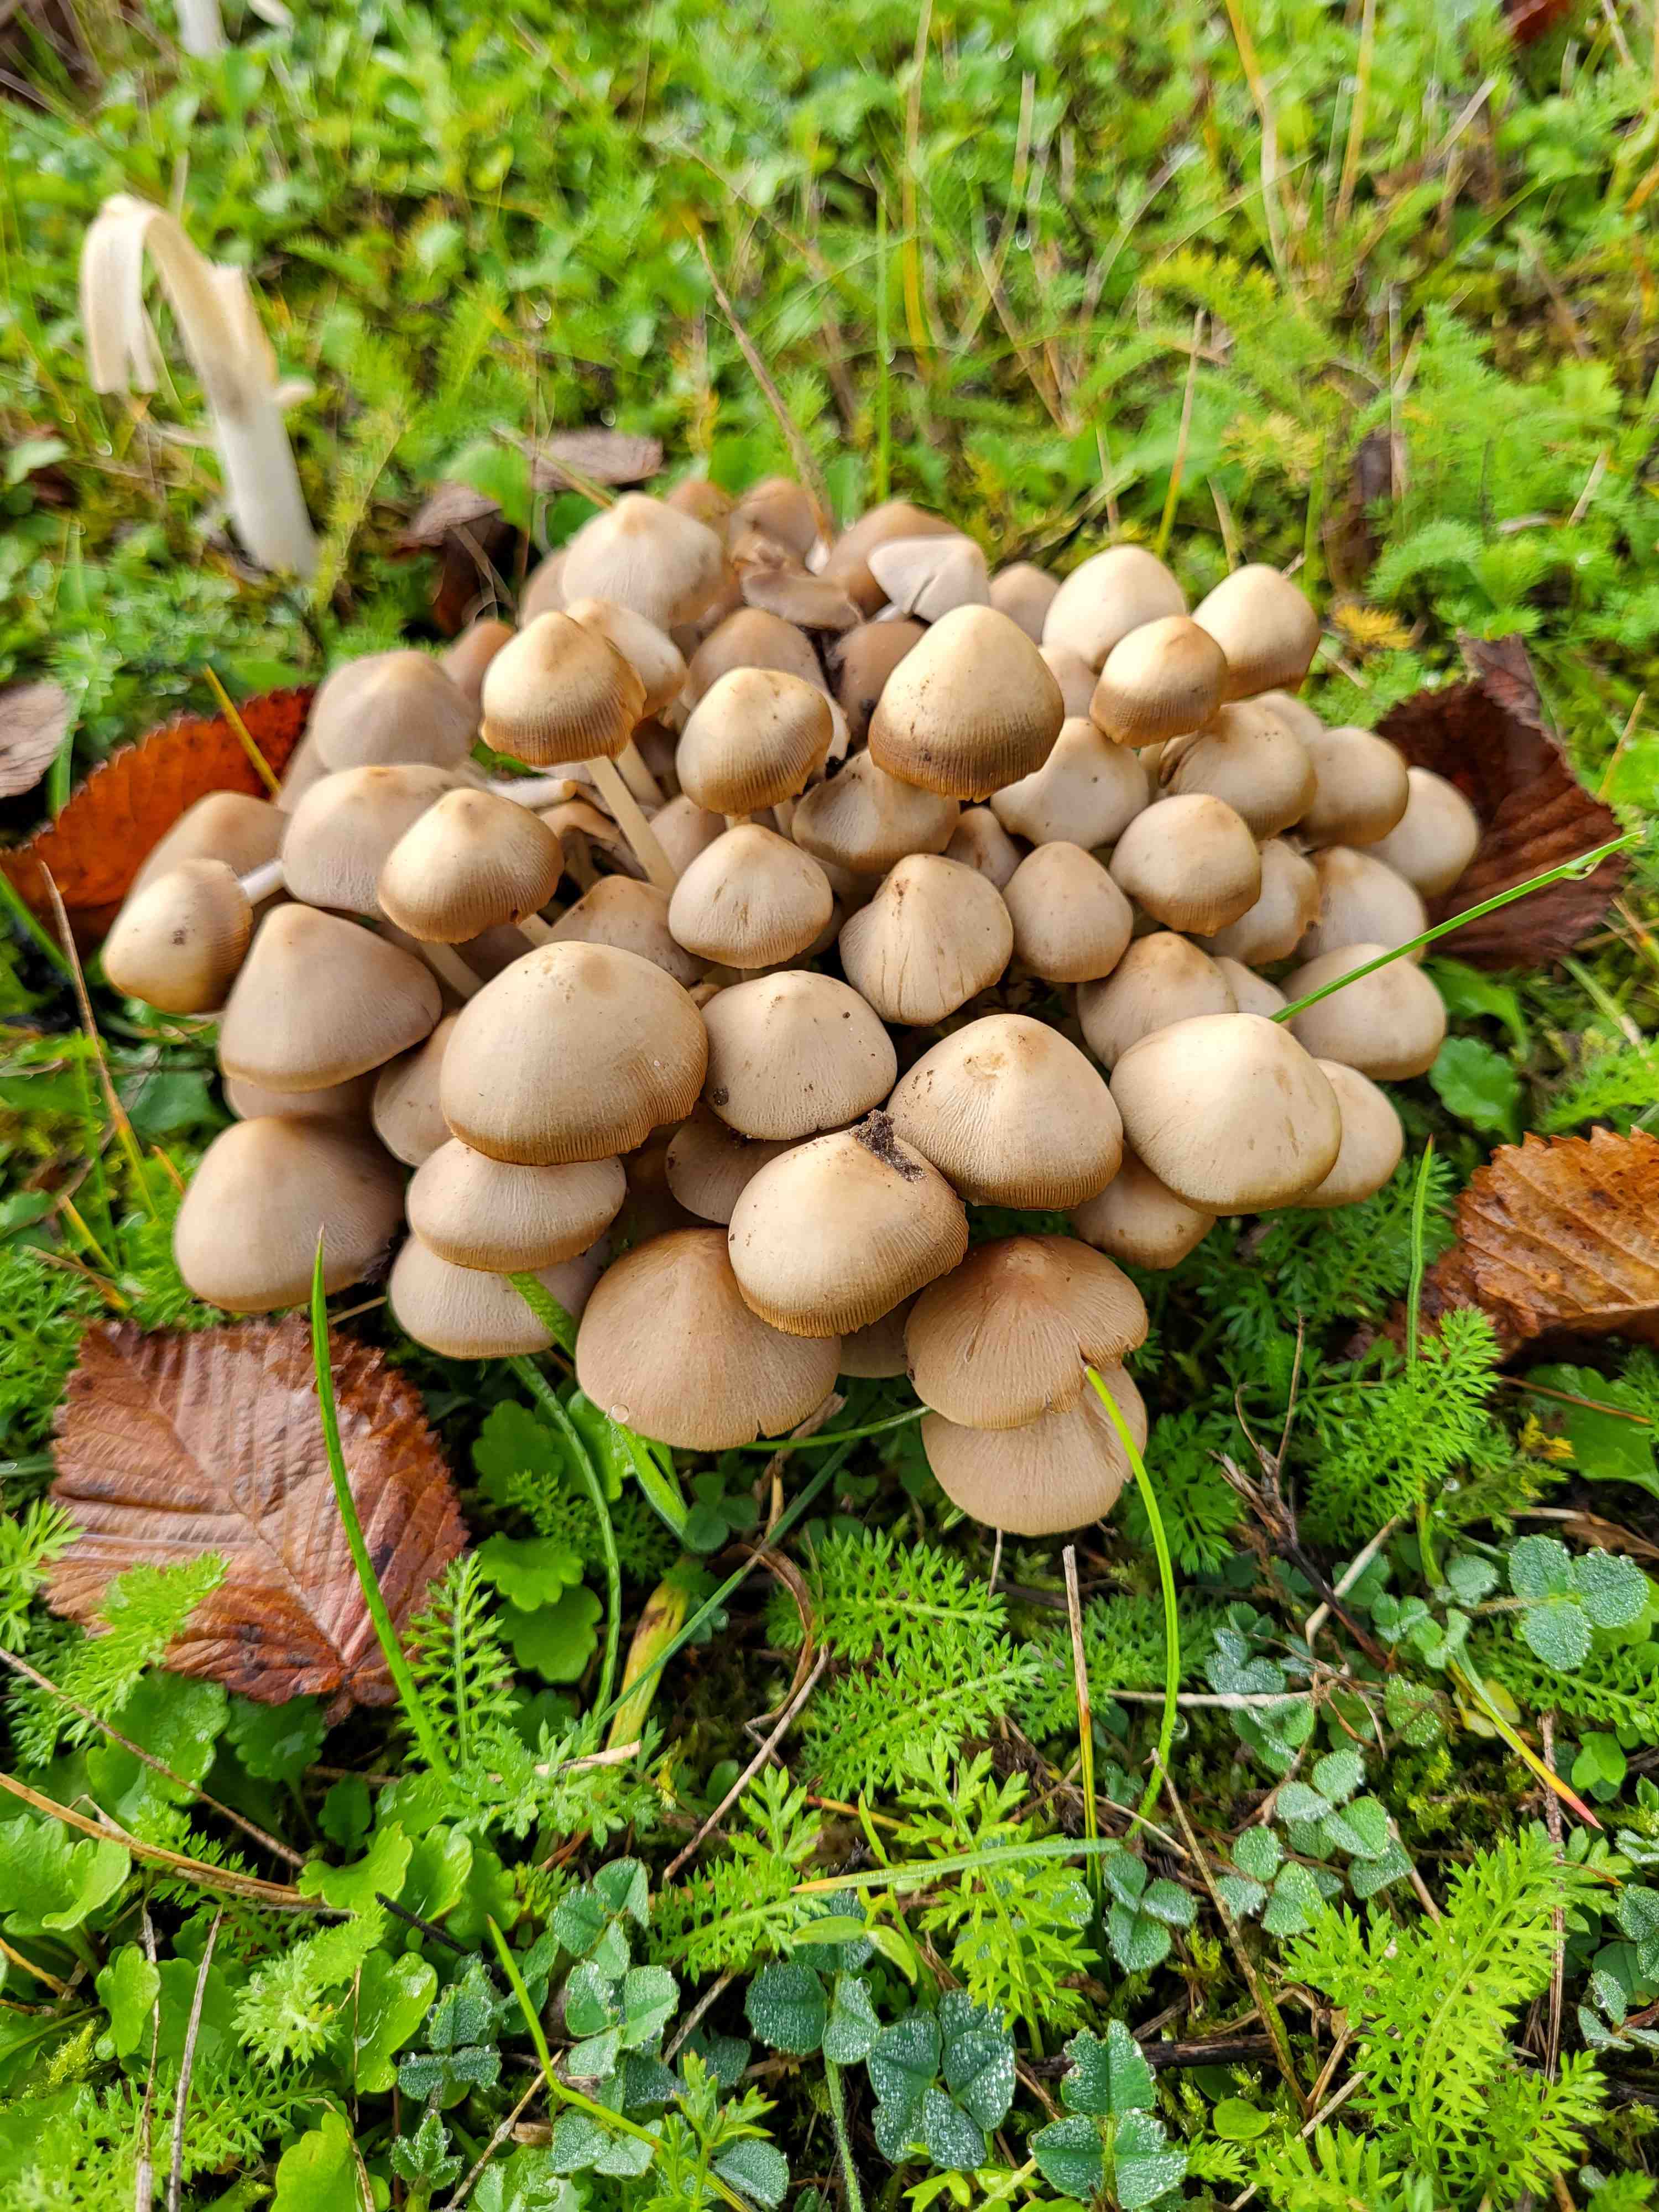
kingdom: Fungi
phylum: Basidiomycota
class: Agaricomycetes
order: Agaricales
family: Psathyrellaceae
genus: Britzelmayria
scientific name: Britzelmayria multipedata
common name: knippe-mørkhat
